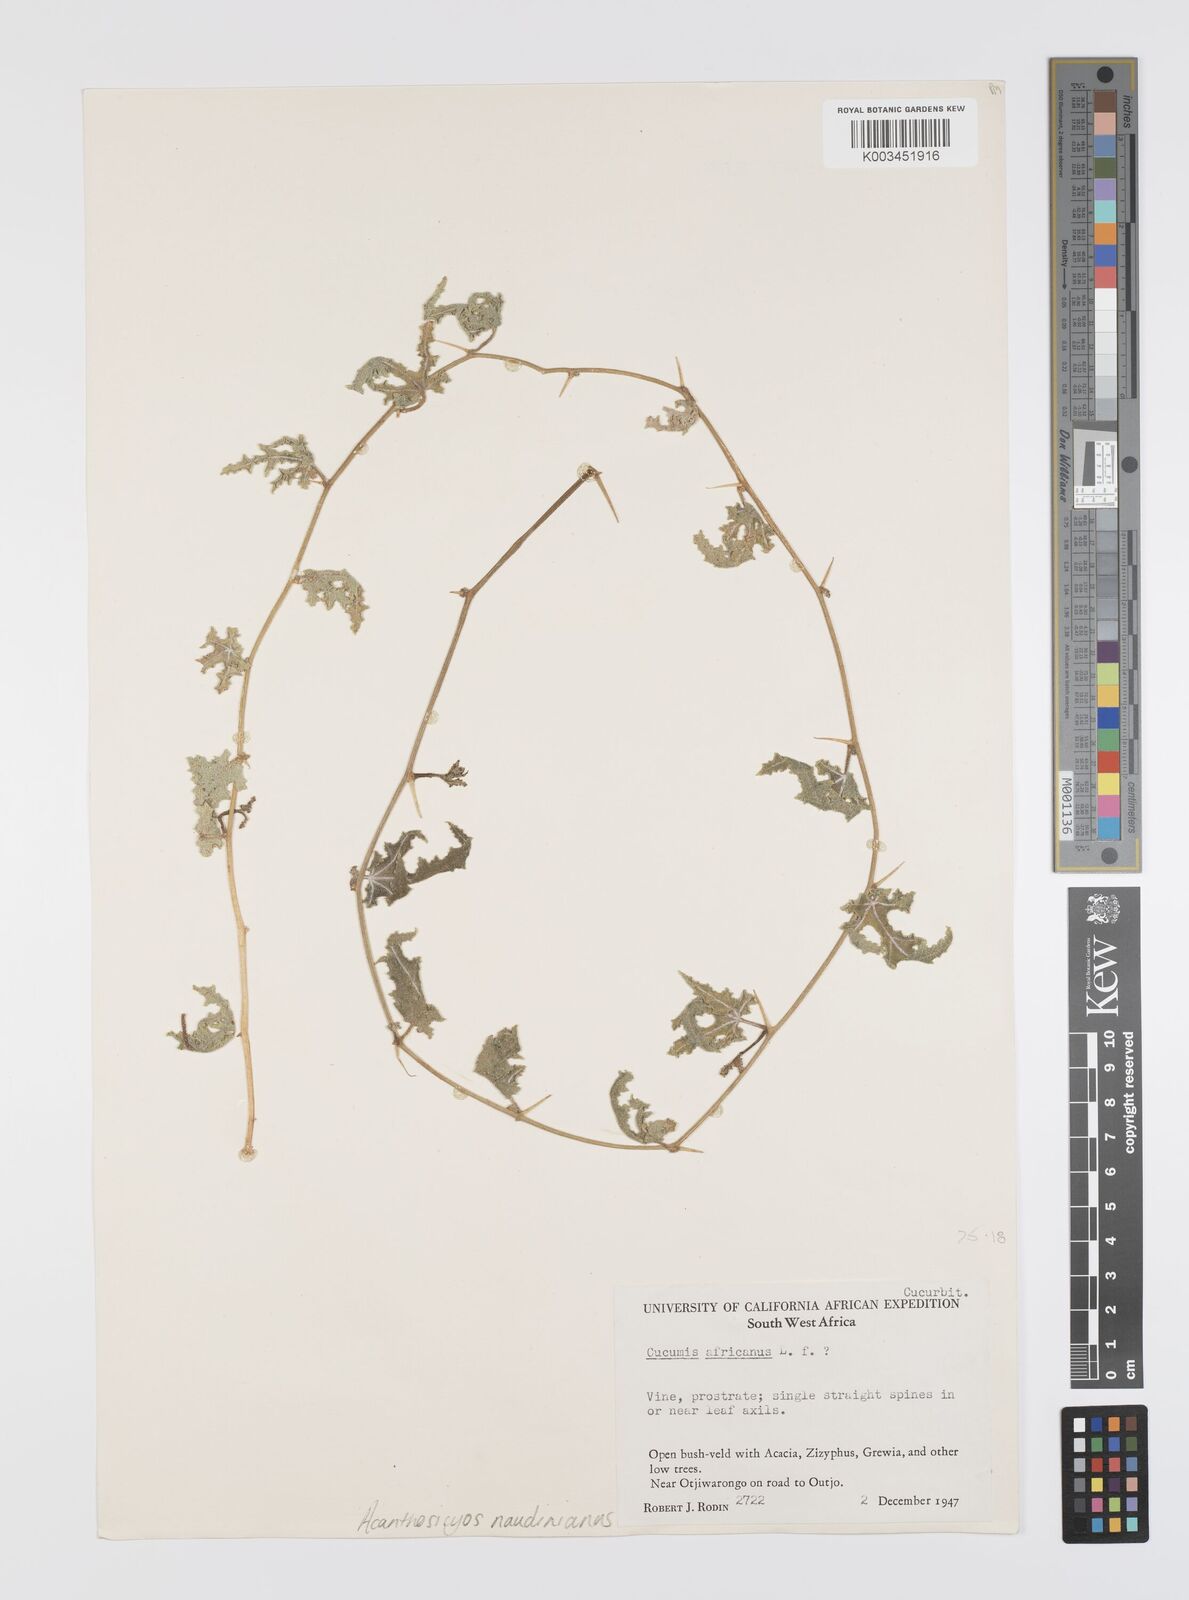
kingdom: Plantae
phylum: Tracheophyta
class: Magnoliopsida
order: Cucurbitales
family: Cucurbitaceae
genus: Citrullus
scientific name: Citrullus naudinianus
